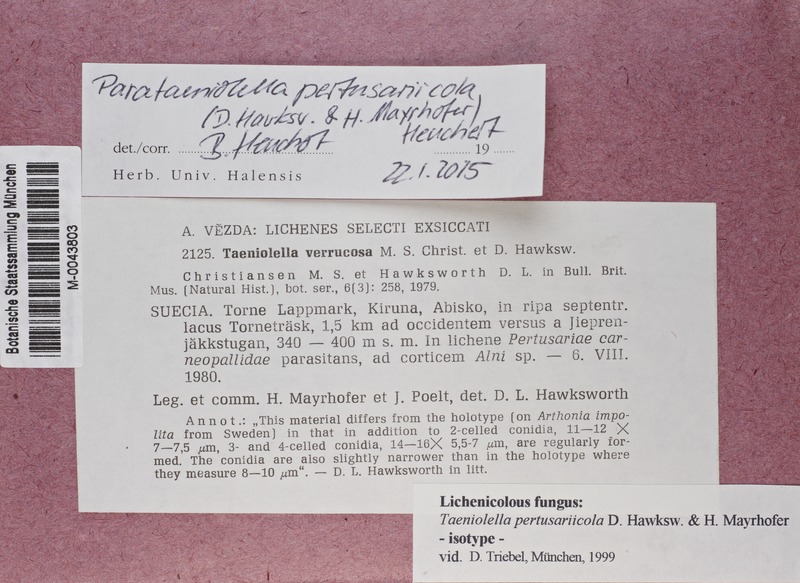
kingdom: Fungi
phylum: Ascomycota
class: Dothideomycetes
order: Mytilinidiales
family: Mytilinidiaceae
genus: Taeniolella
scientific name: Taeniolella pertusariicola
